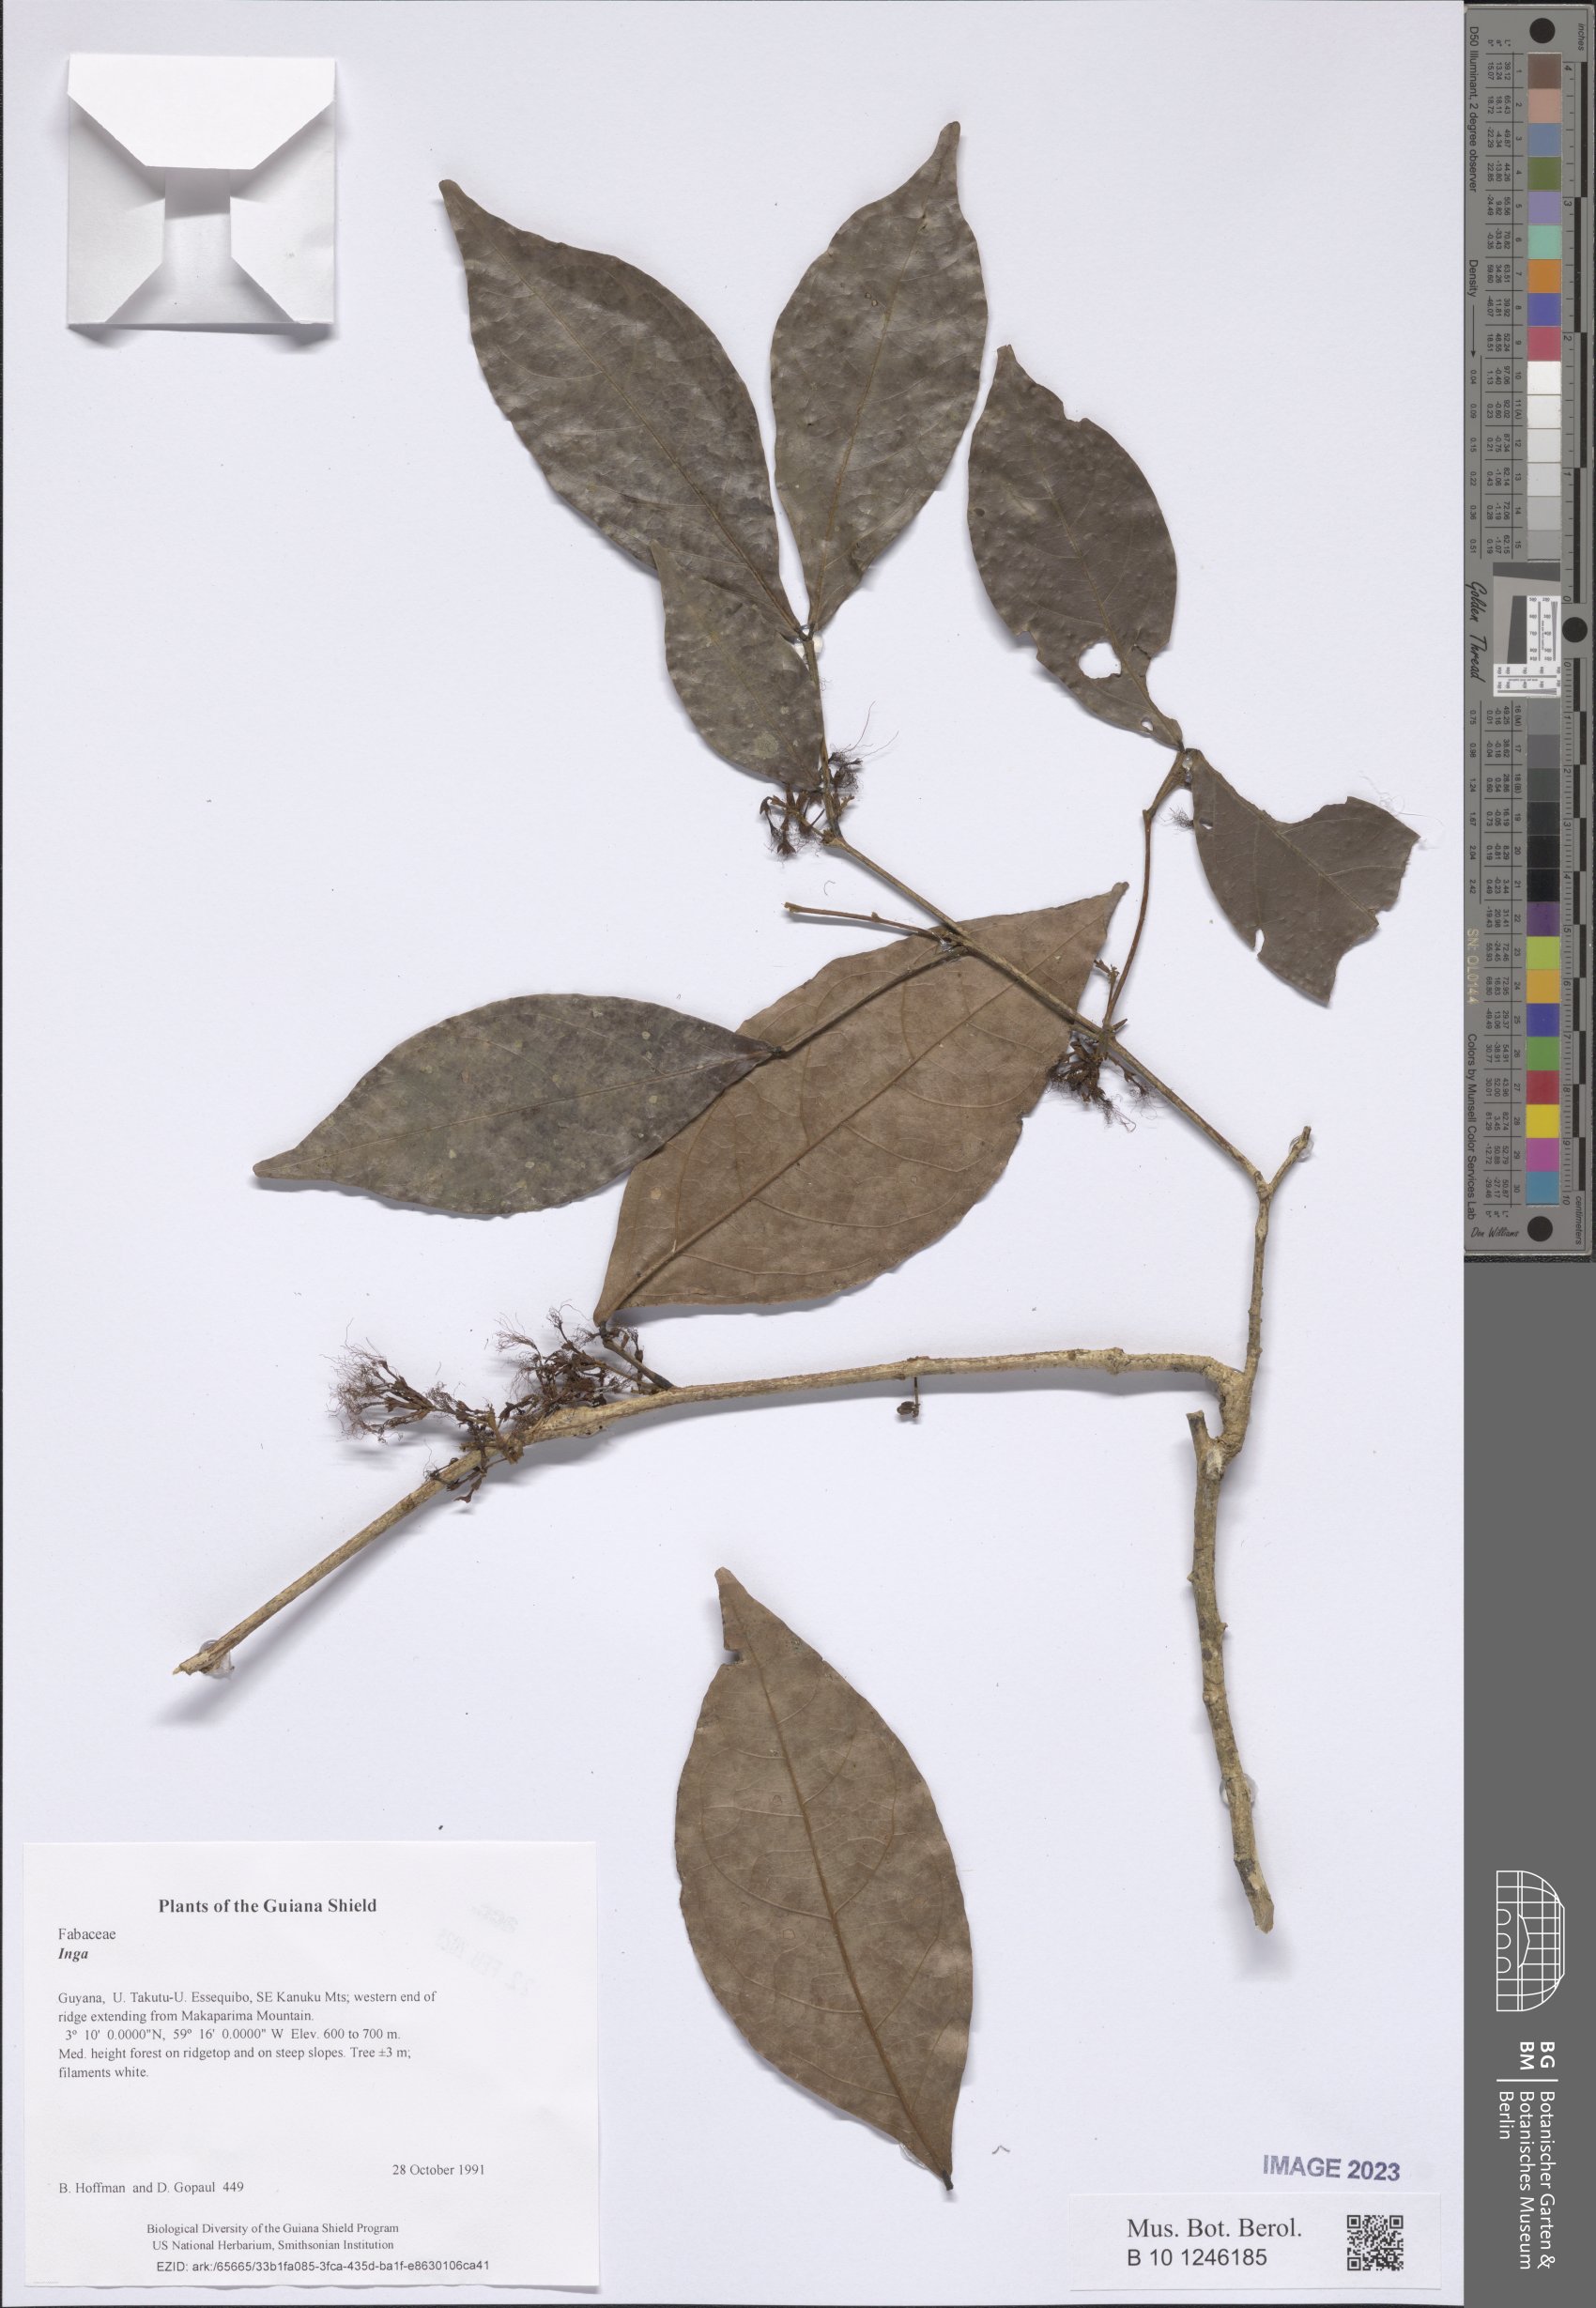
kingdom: Plantae
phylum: Tracheophyta
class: Magnoliopsida
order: Fabales
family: Fabaceae
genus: Inga
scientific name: Inga
